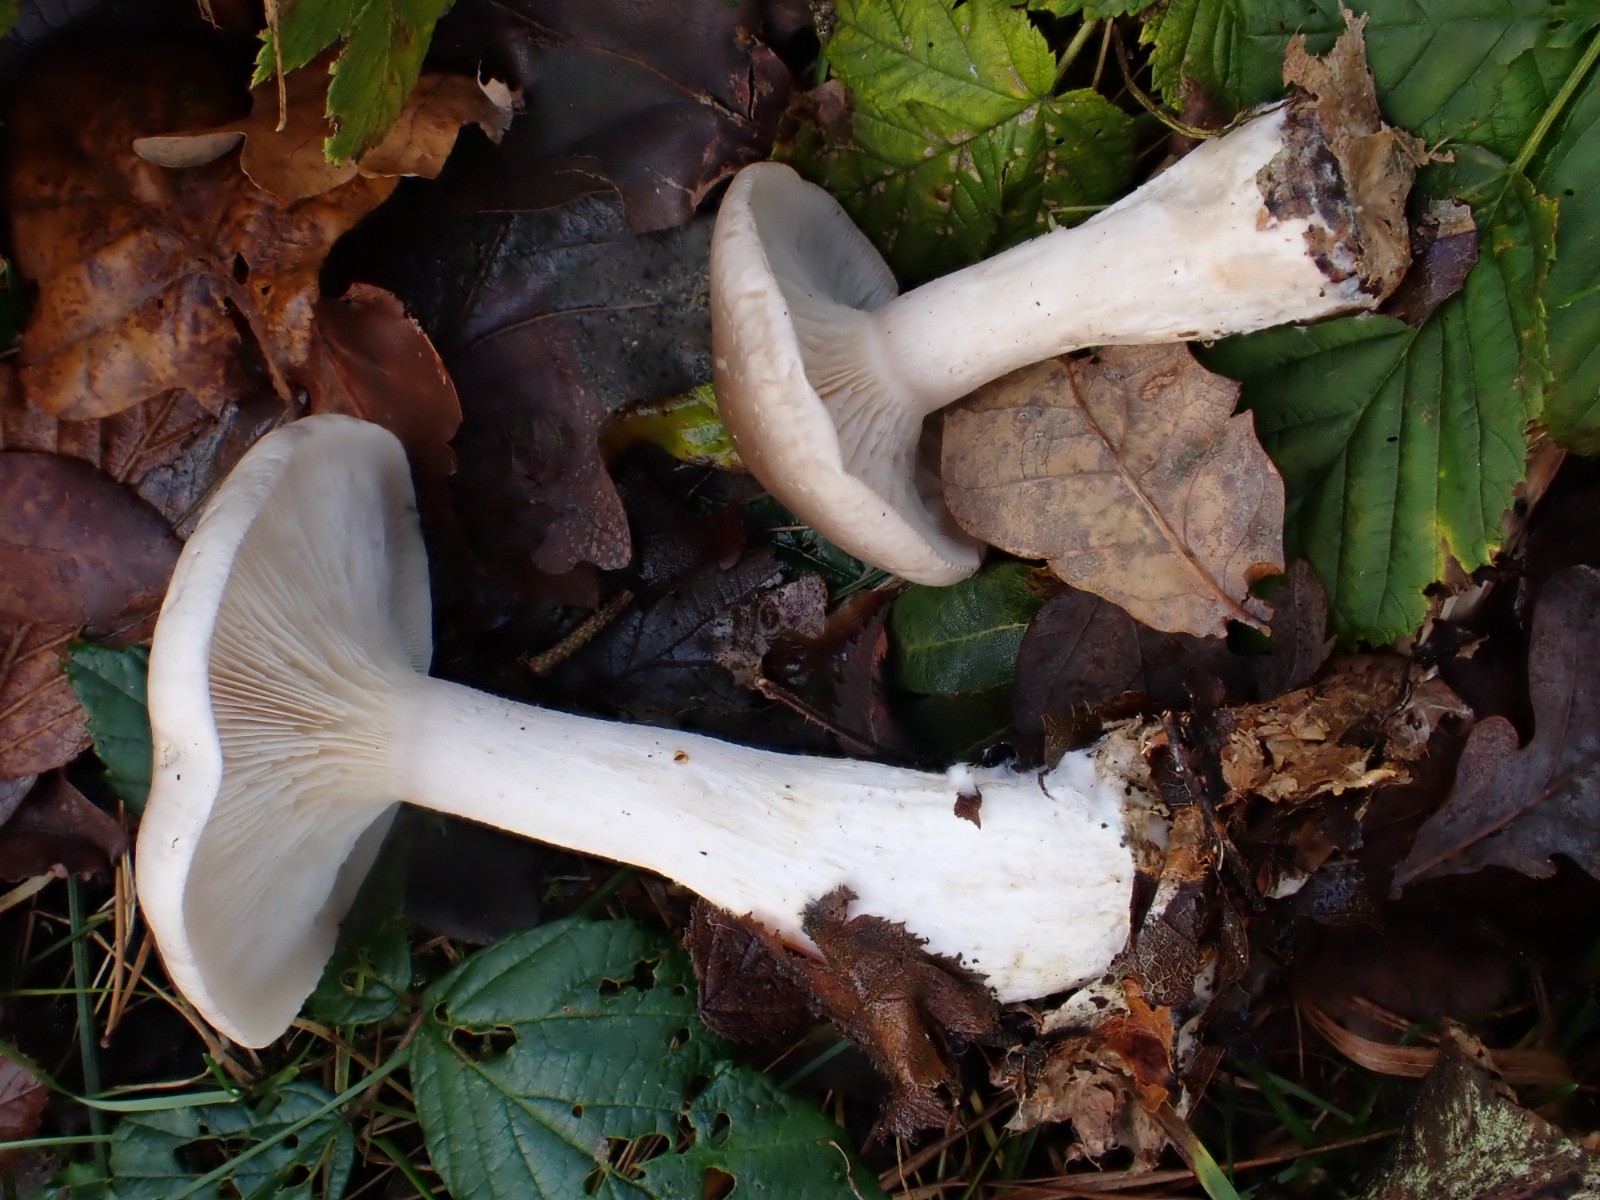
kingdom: Fungi
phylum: Basidiomycota
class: Agaricomycetes
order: Agaricales
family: Tricholomataceae
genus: Clitocybe
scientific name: Clitocybe nebularis
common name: tåge-tragthat
